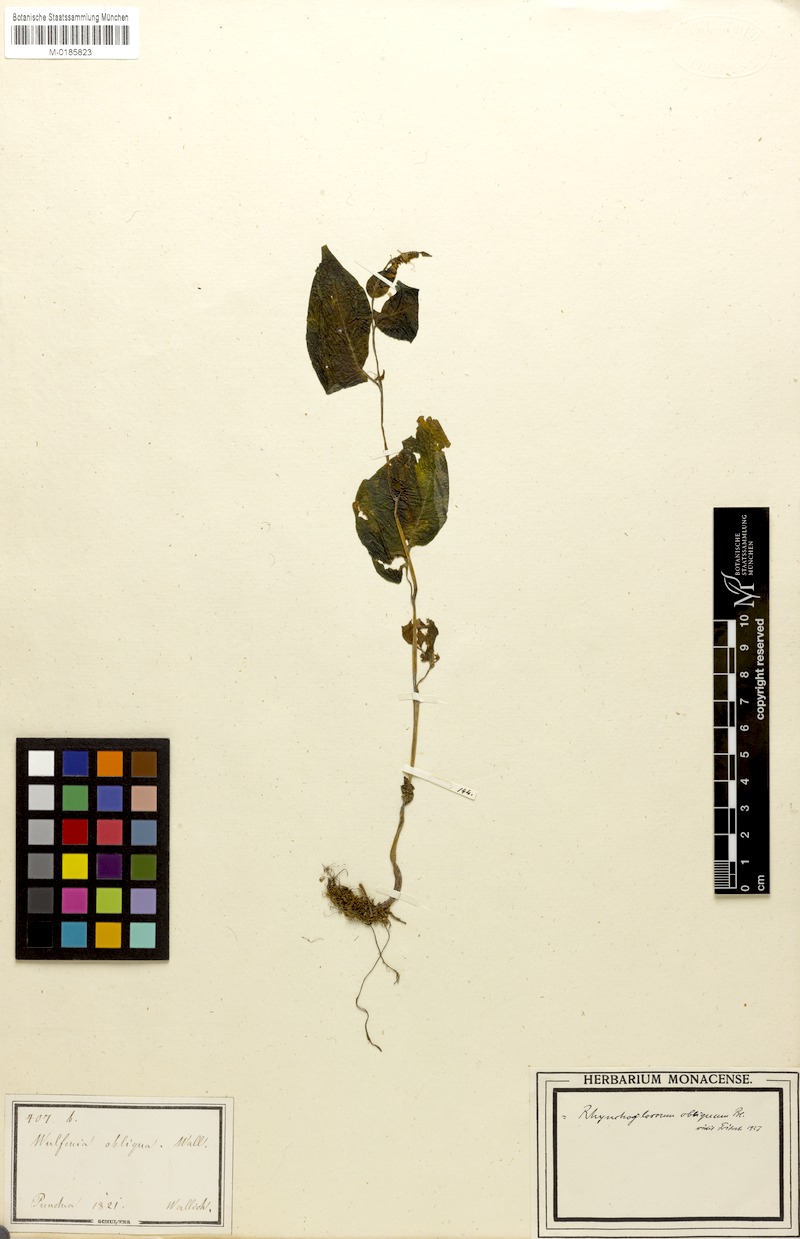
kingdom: Plantae
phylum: Tracheophyta
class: Magnoliopsida
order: Lamiales
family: Gesneriaceae
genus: Rhynchoglossum
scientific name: Rhynchoglossum obliquum
